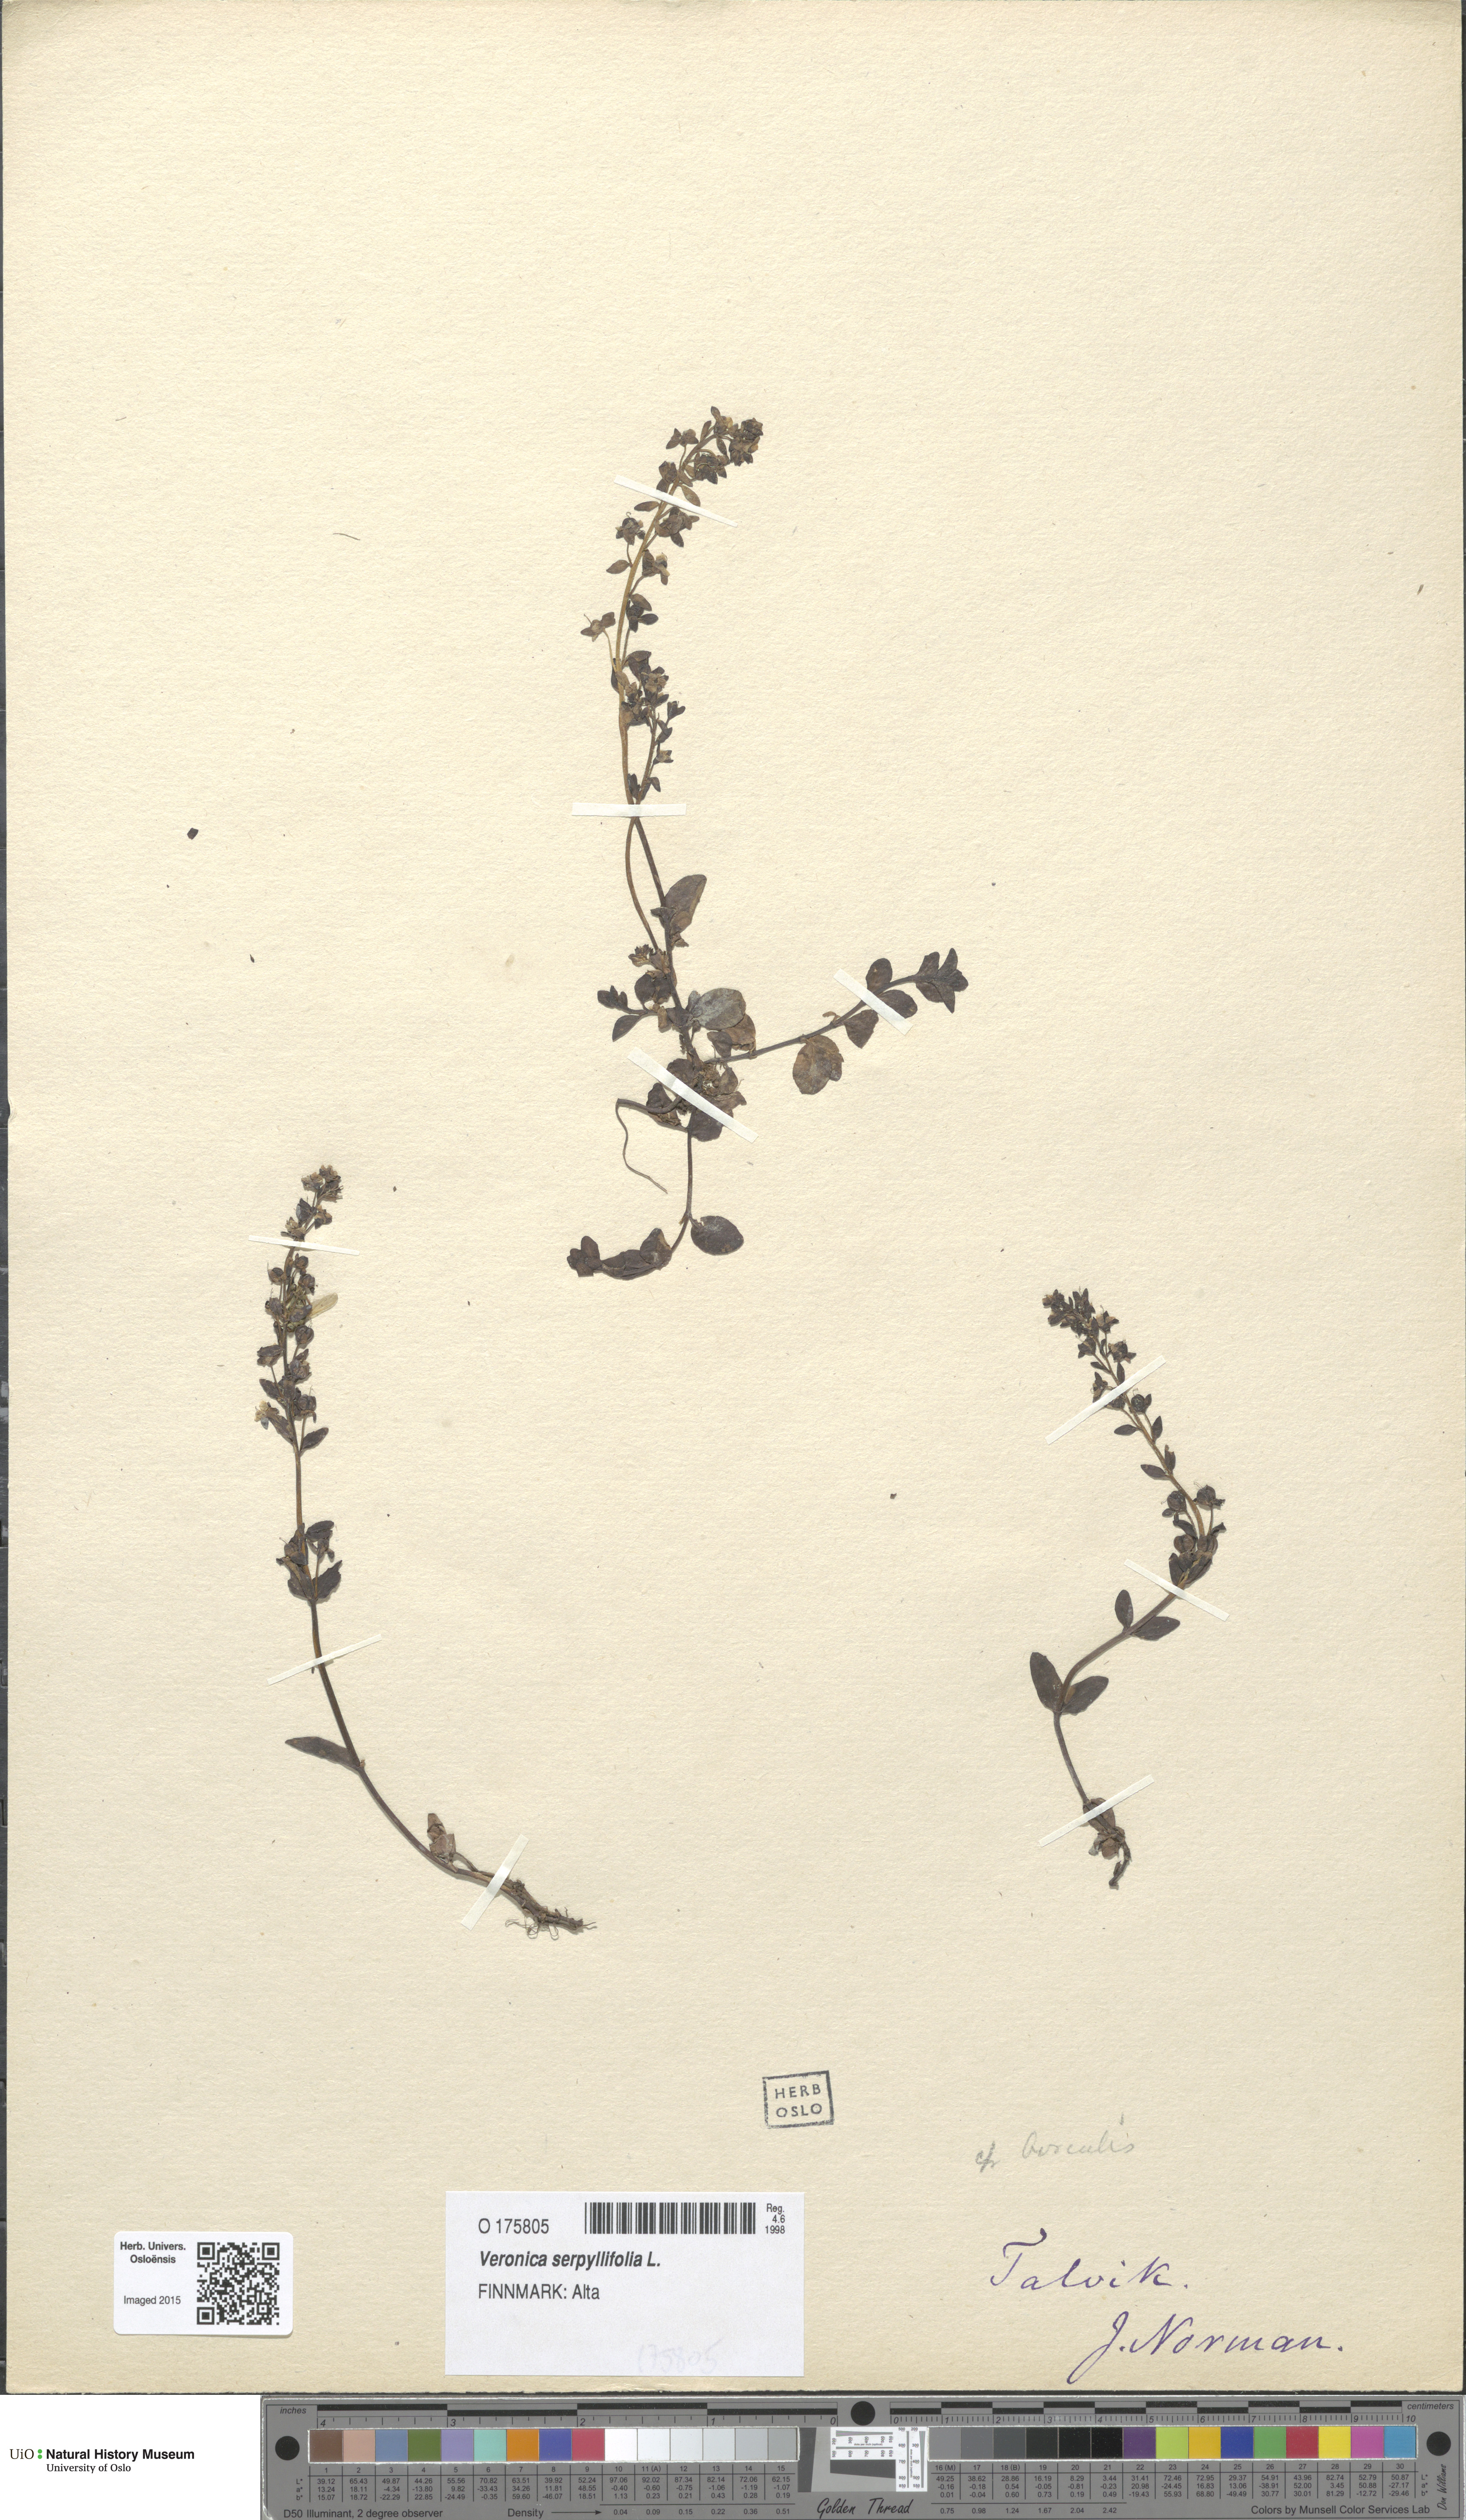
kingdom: Plantae
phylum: Tracheophyta
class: Magnoliopsida
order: Lamiales
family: Plantaginaceae
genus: Veronica
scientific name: Veronica serpyllifolia
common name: Thyme-leaved speedwell
